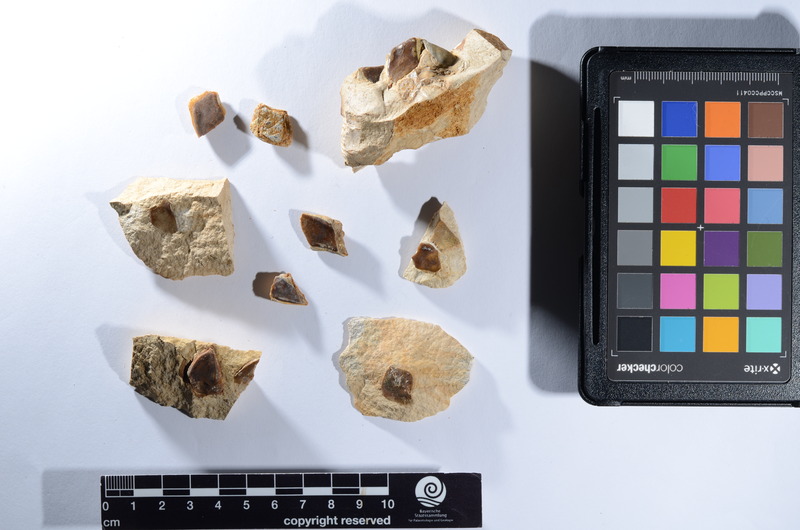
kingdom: Animalia
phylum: Chordata
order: Lepisosteiformes
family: Lepidotidae
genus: Lepidotes
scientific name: Lepidotes
